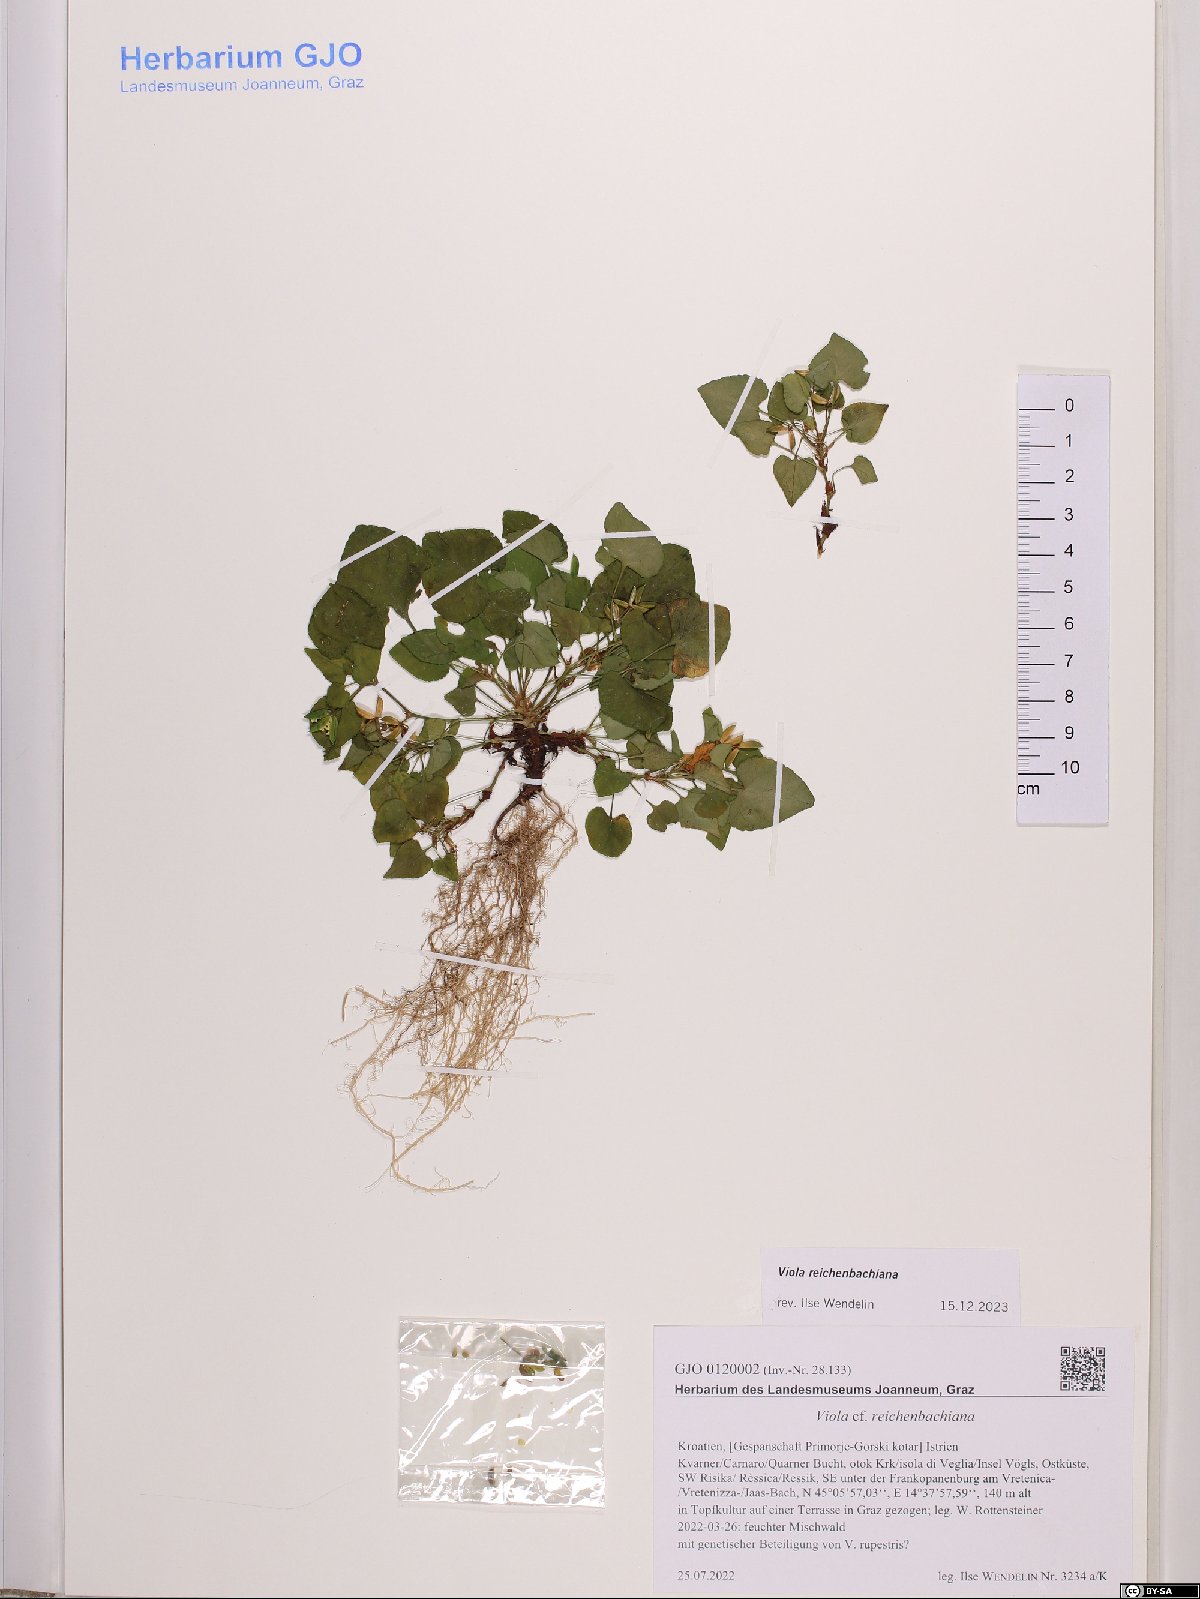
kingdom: Plantae
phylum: Tracheophyta
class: Magnoliopsida
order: Malpighiales
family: Violaceae
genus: Viola
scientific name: Viola reichenbachiana
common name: Early dog-violet
